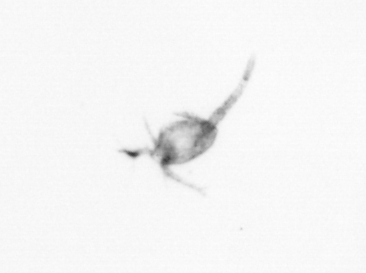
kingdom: Animalia
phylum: Arthropoda
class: Copepoda
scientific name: Copepoda
